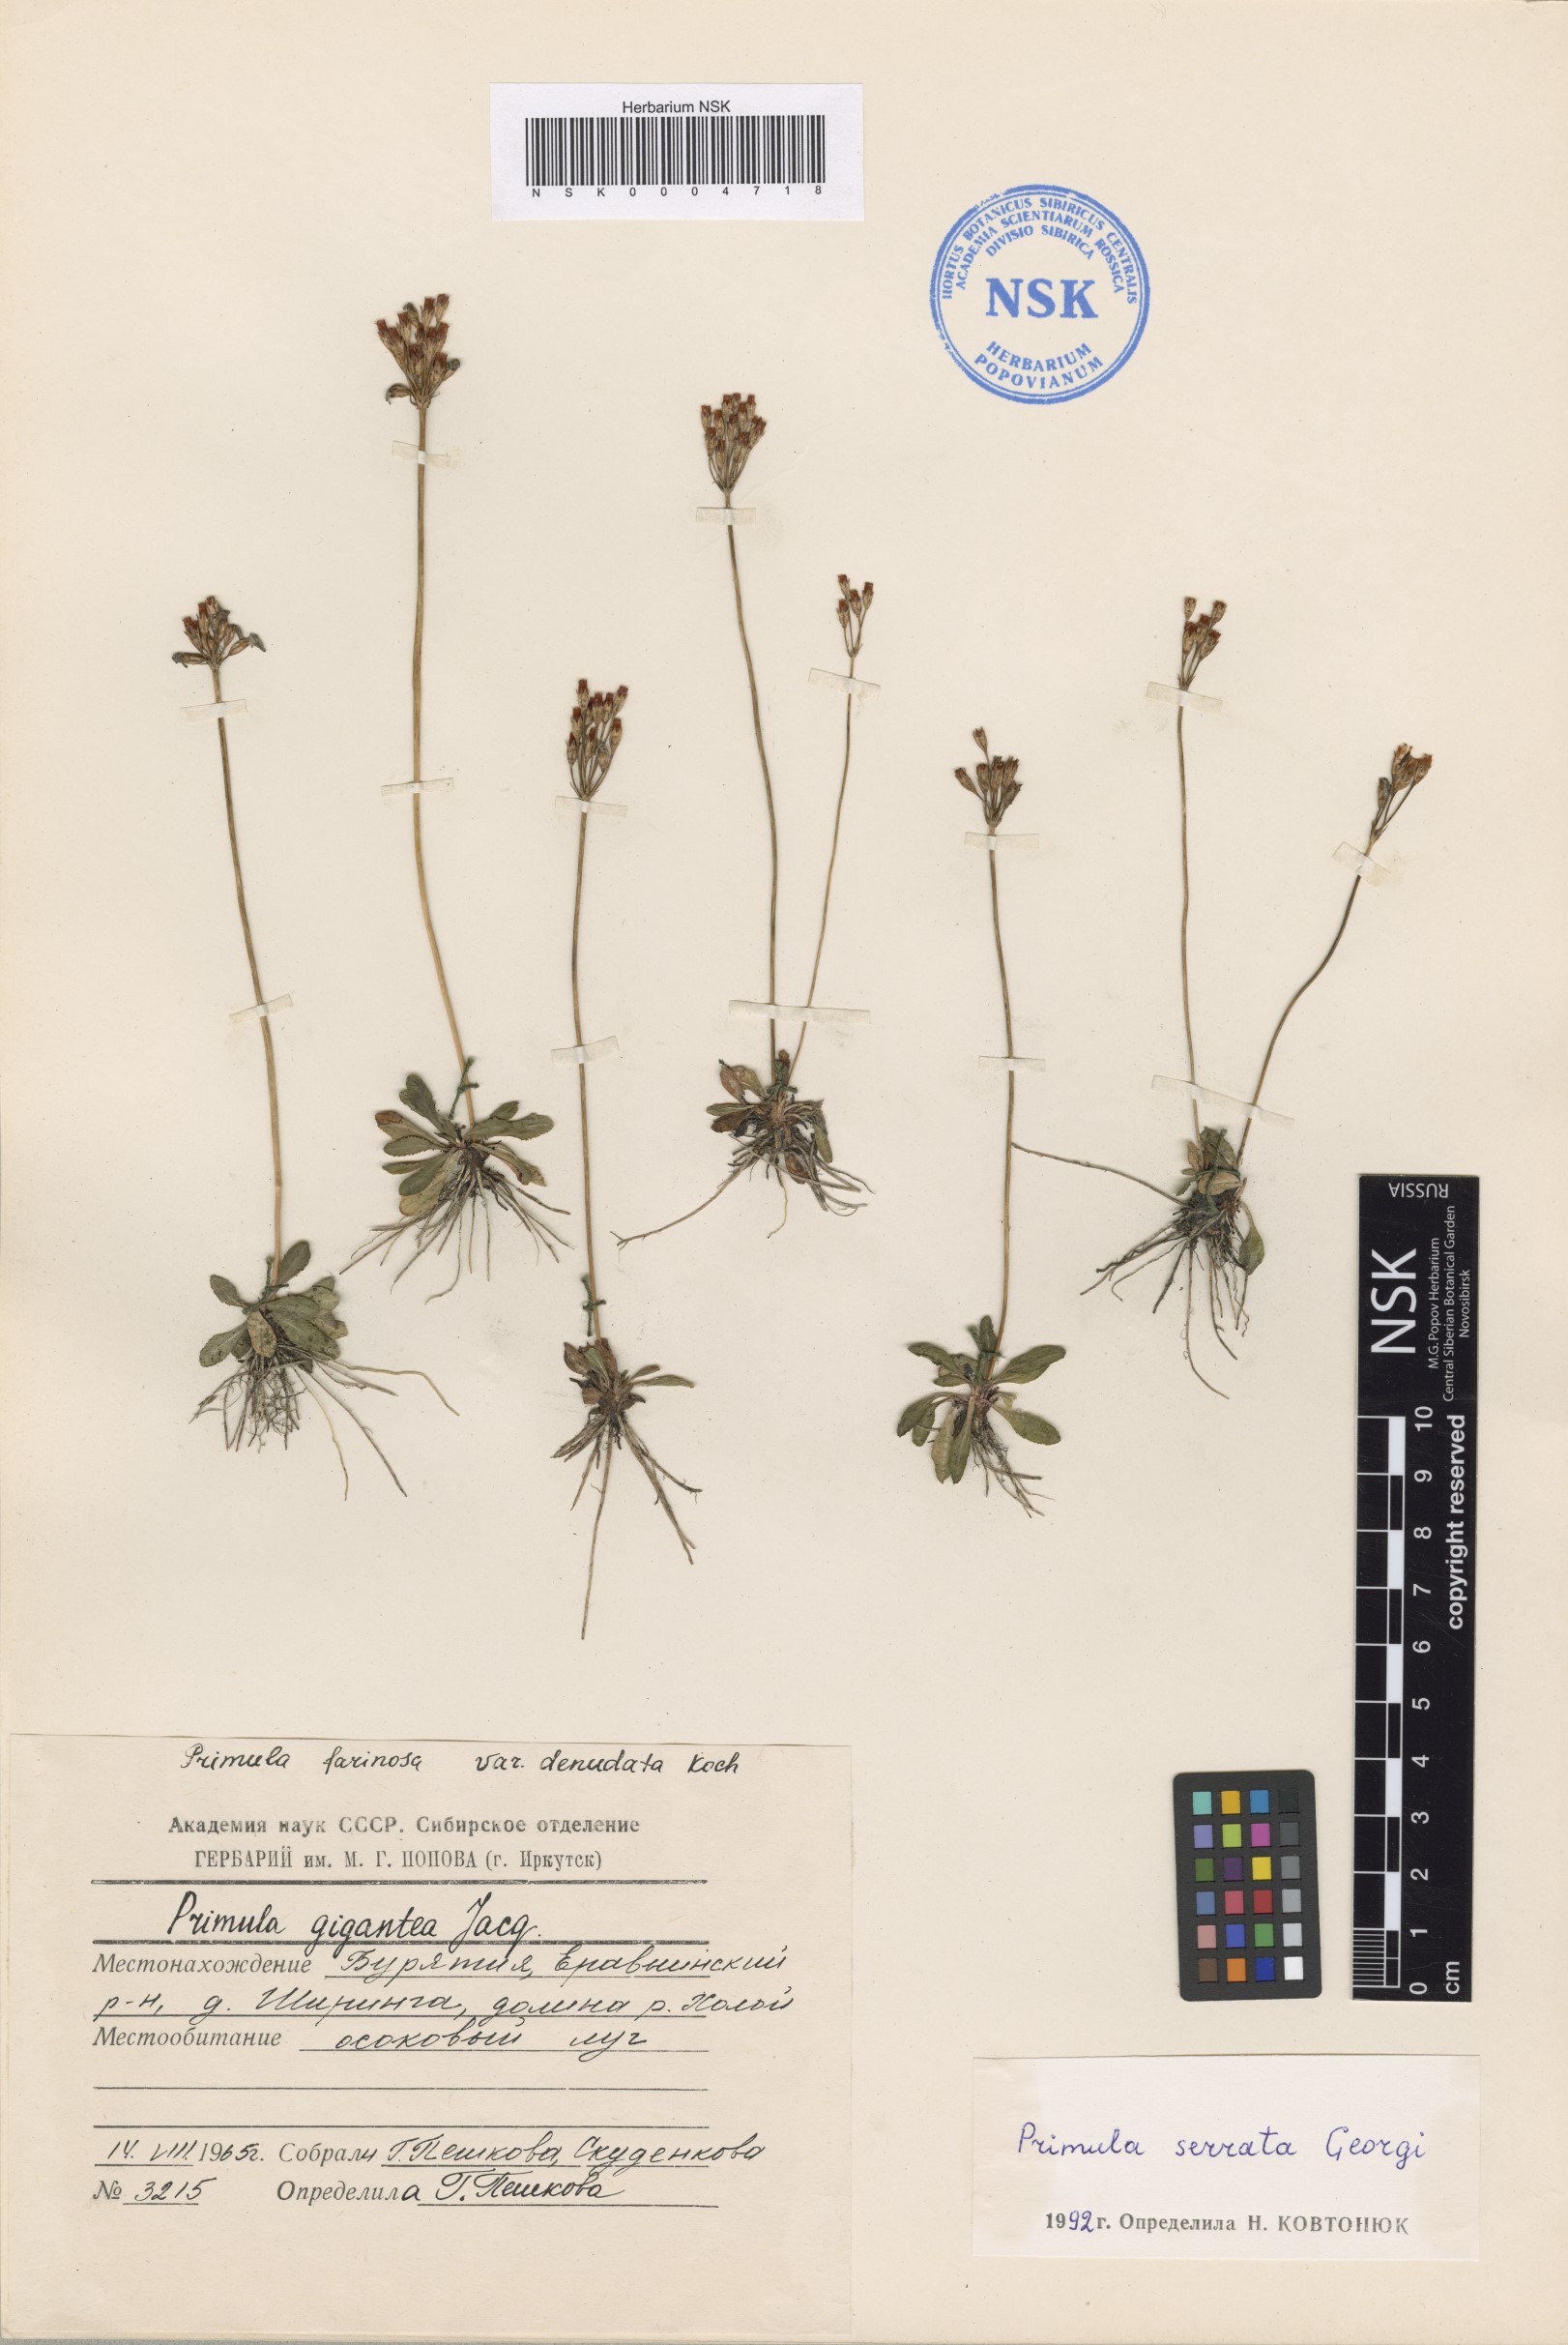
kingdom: Plantae
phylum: Tracheophyta
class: Magnoliopsida
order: Ericales
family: Primulaceae
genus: Primula
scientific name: Primula serrata
